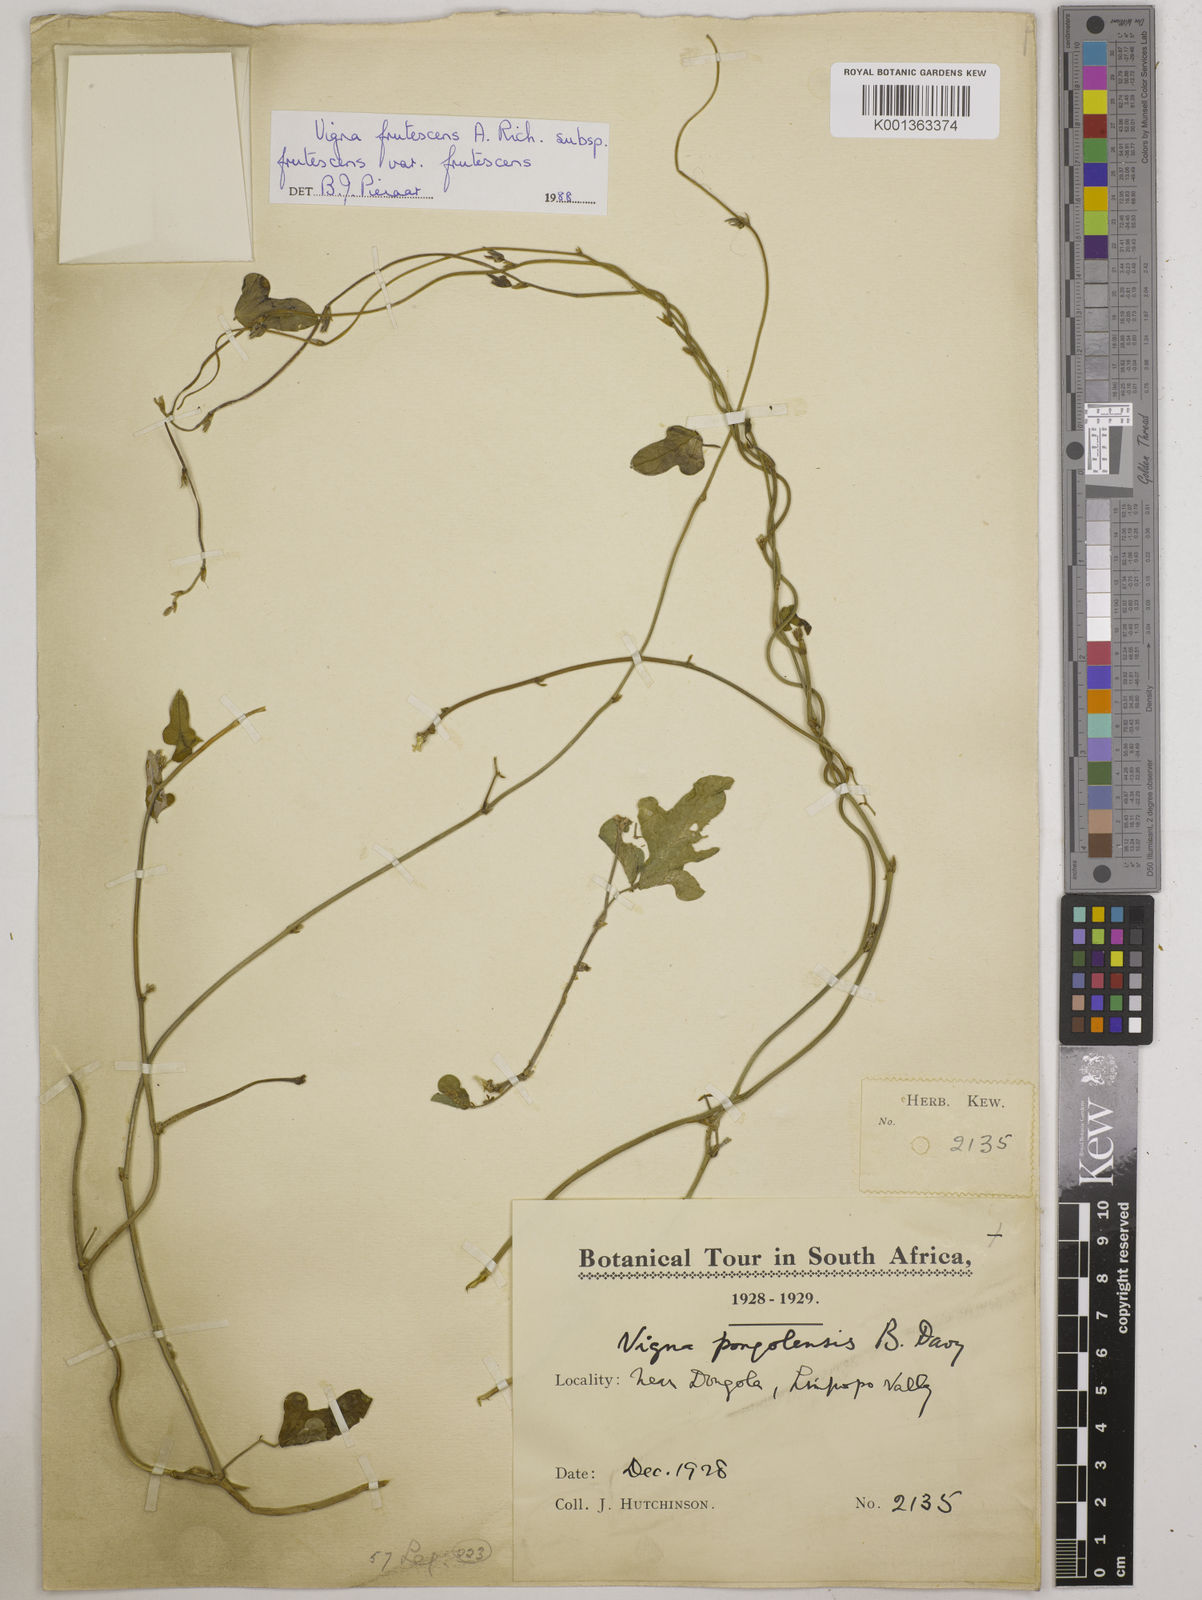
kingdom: Plantae
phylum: Tracheophyta
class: Magnoliopsida
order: Fabales
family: Fabaceae
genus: Vigna
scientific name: Vigna frutescens
